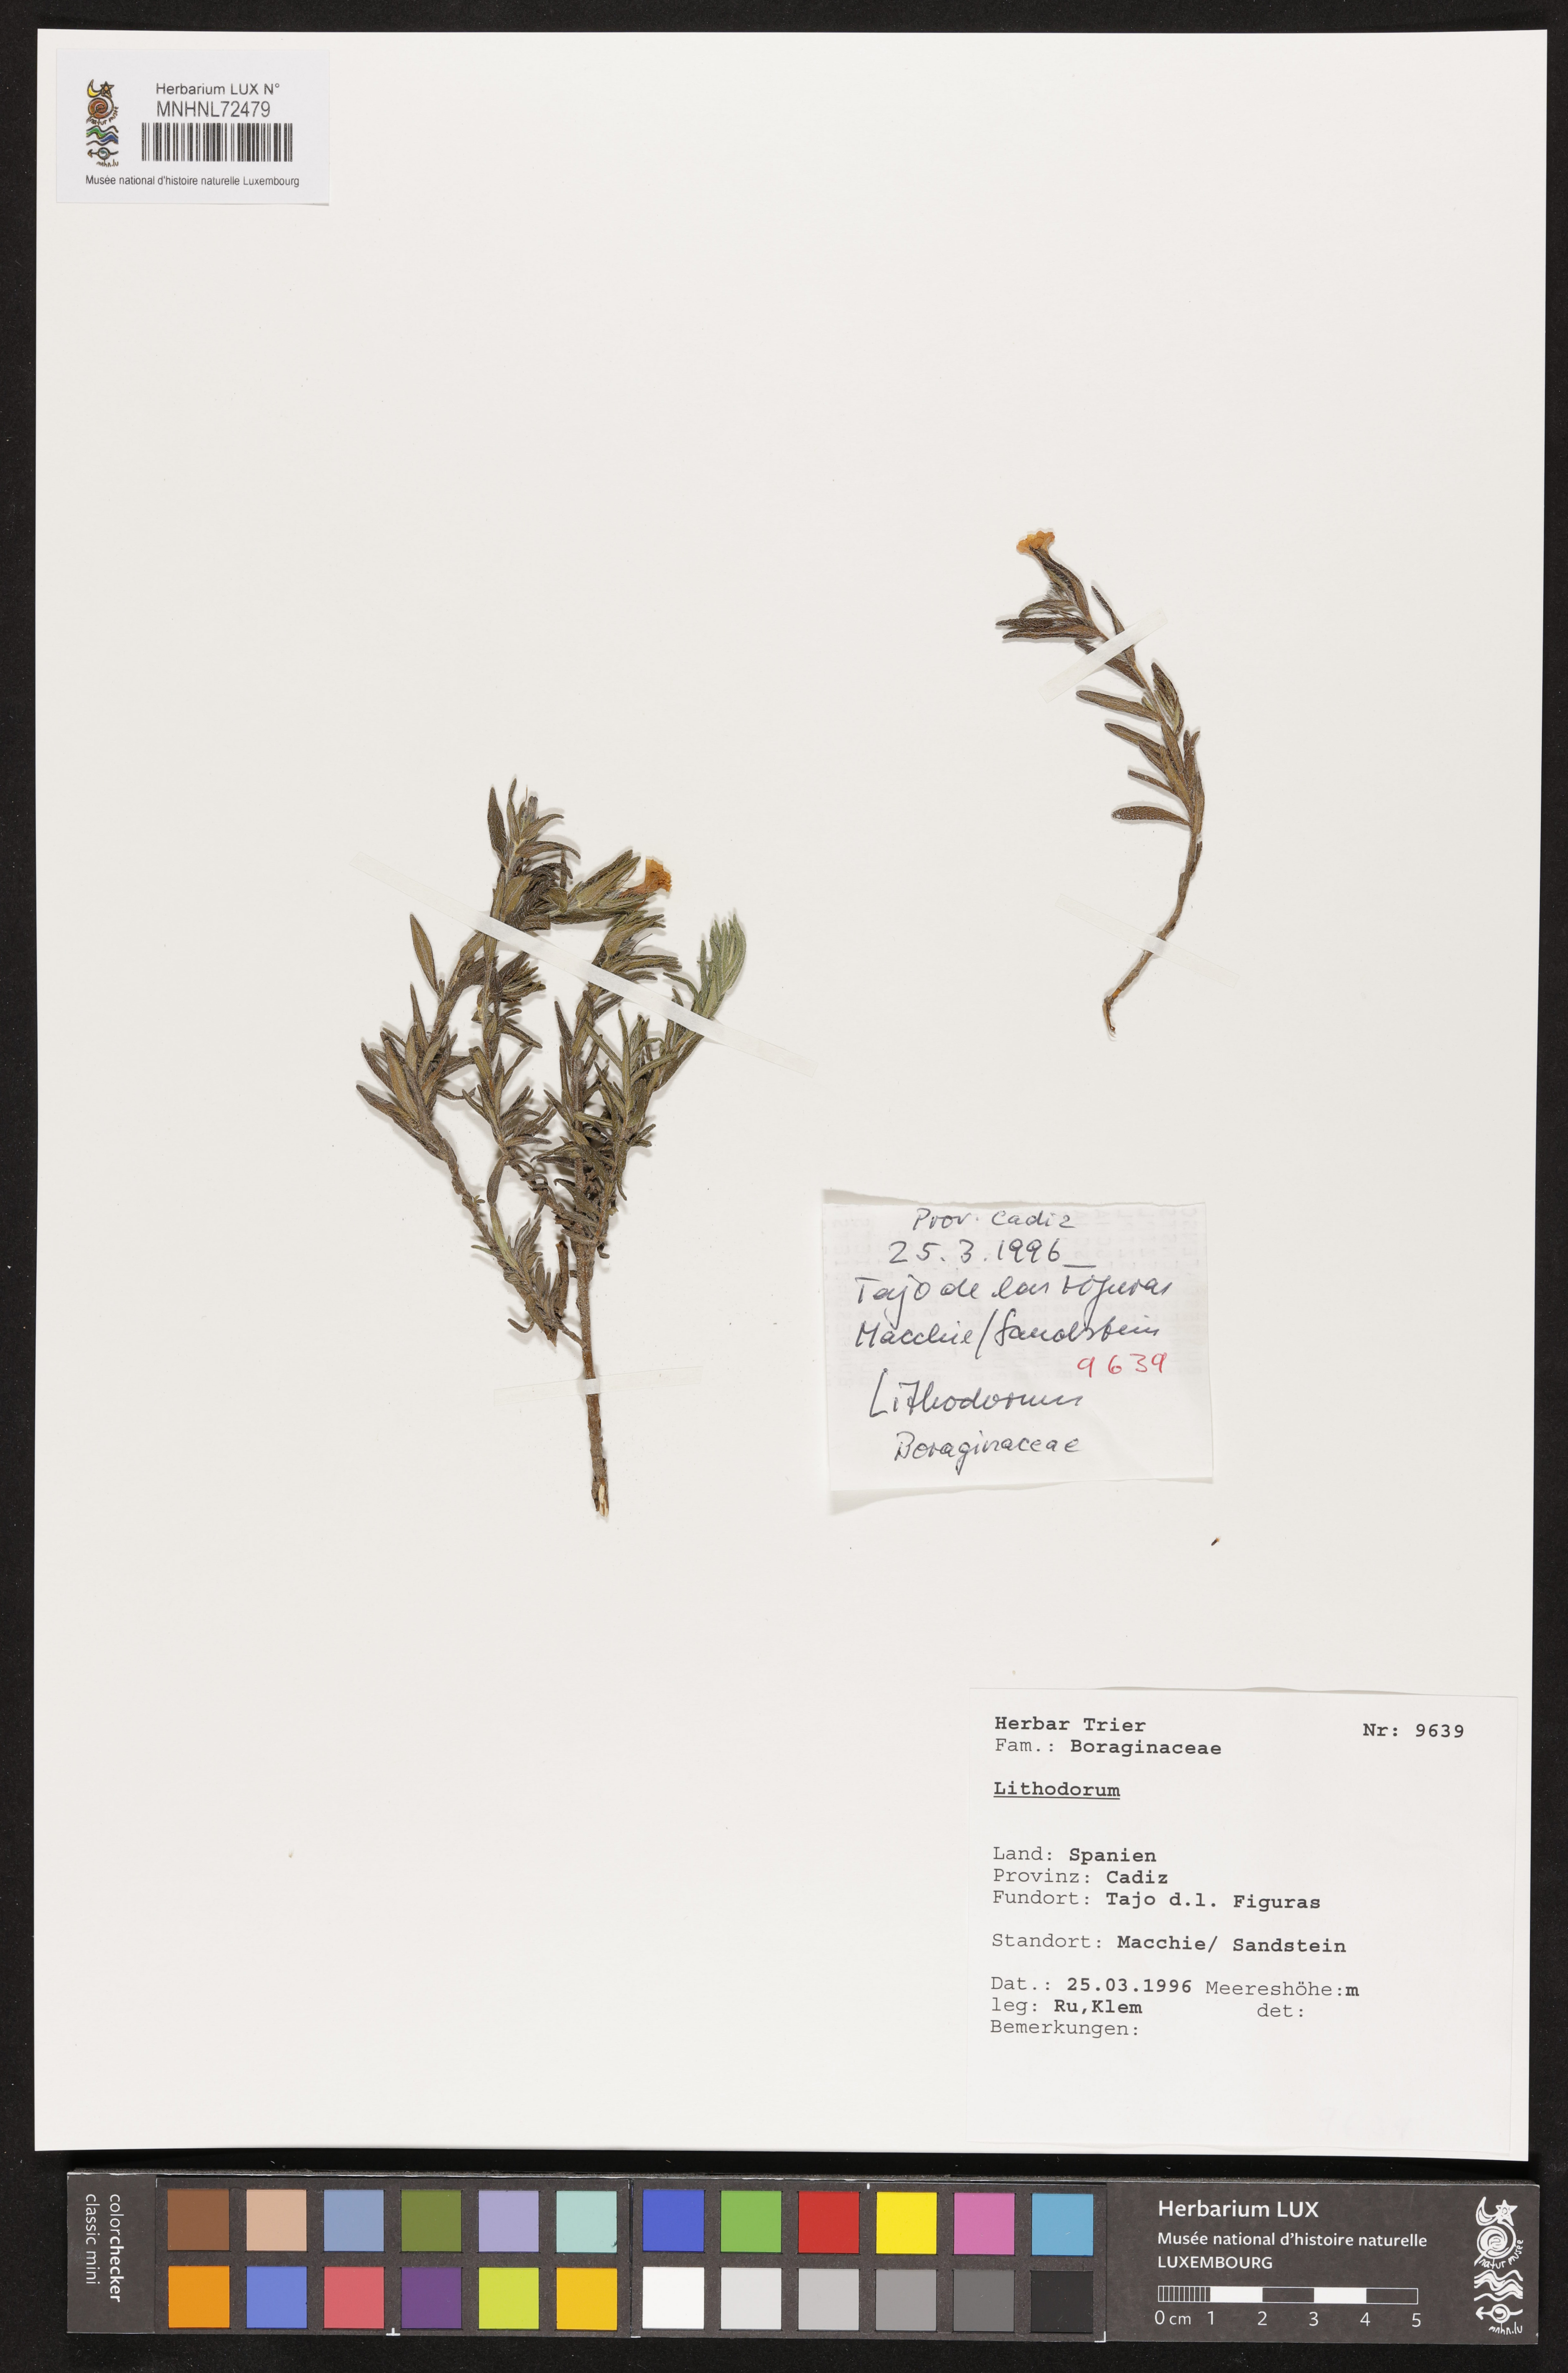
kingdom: Plantae
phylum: Tracheophyta
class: Magnoliopsida
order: Boraginales
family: Boraginaceae
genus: Lithodora
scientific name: Lithodora
